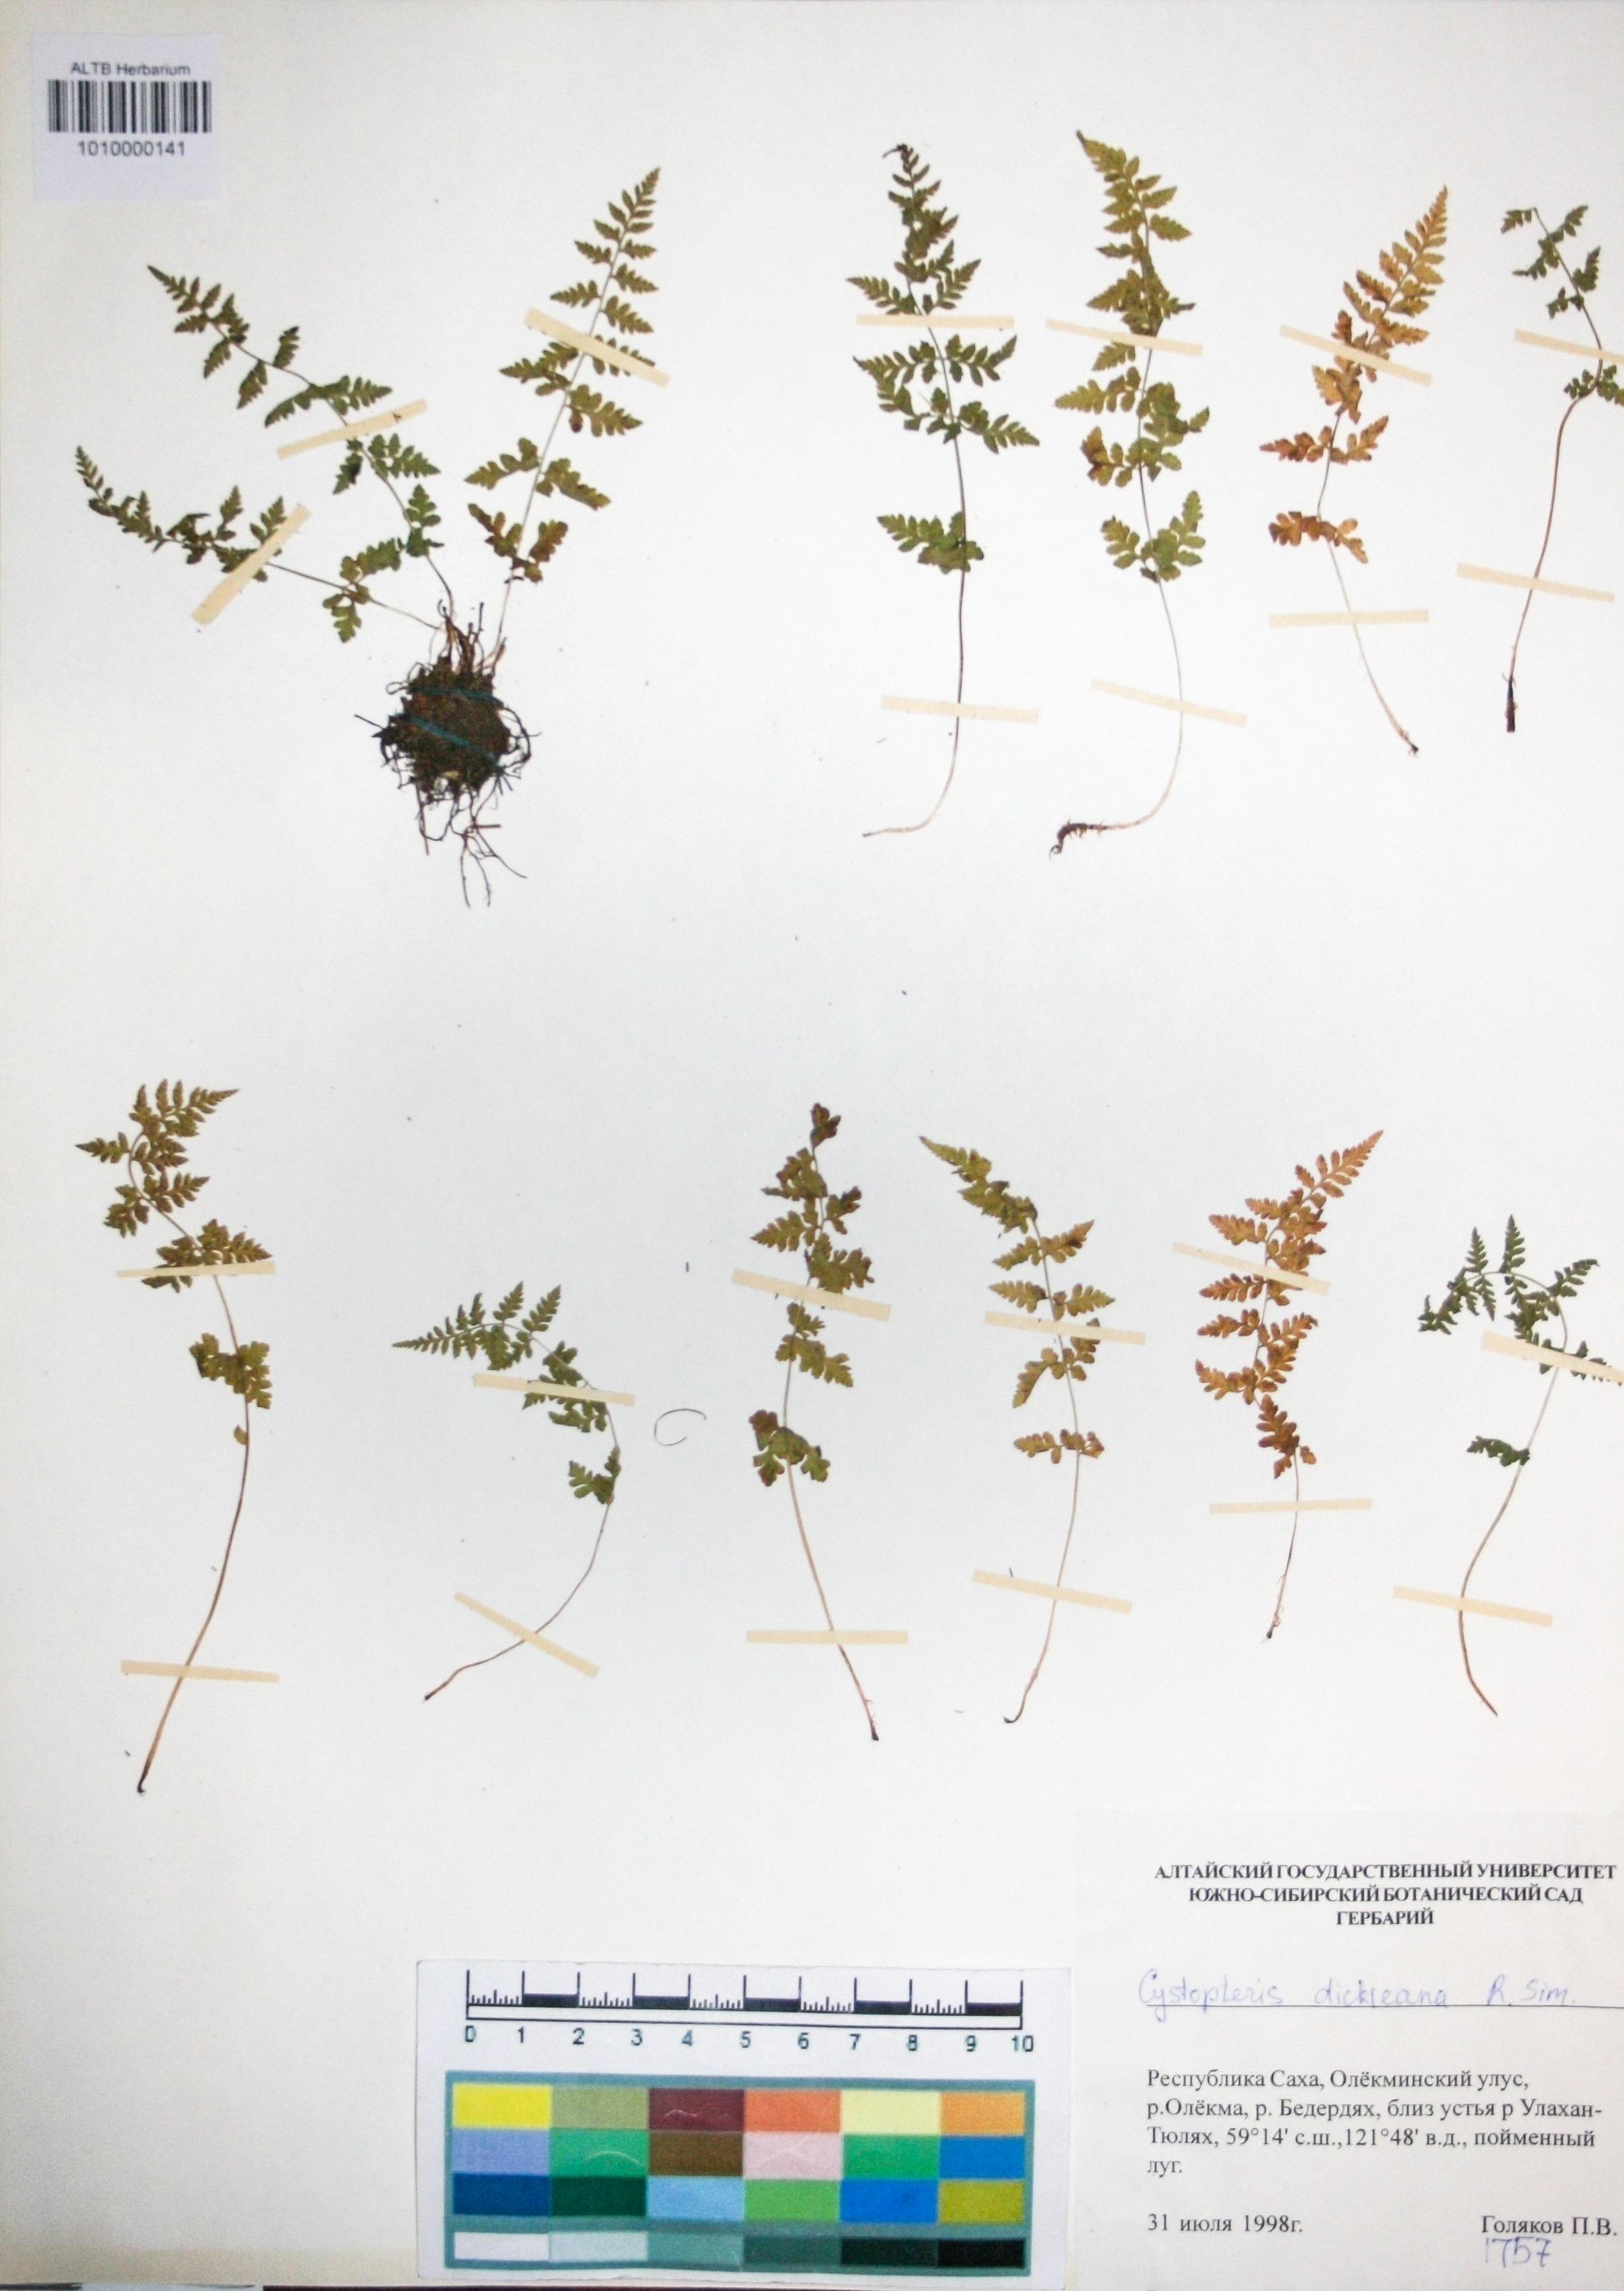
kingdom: Plantae
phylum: Tracheophyta
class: Polypodiopsida
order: Polypodiales
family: Cystopteridaceae
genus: Cystopteris
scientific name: Cystopteris dickieana
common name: Dickie's bladder-fern
